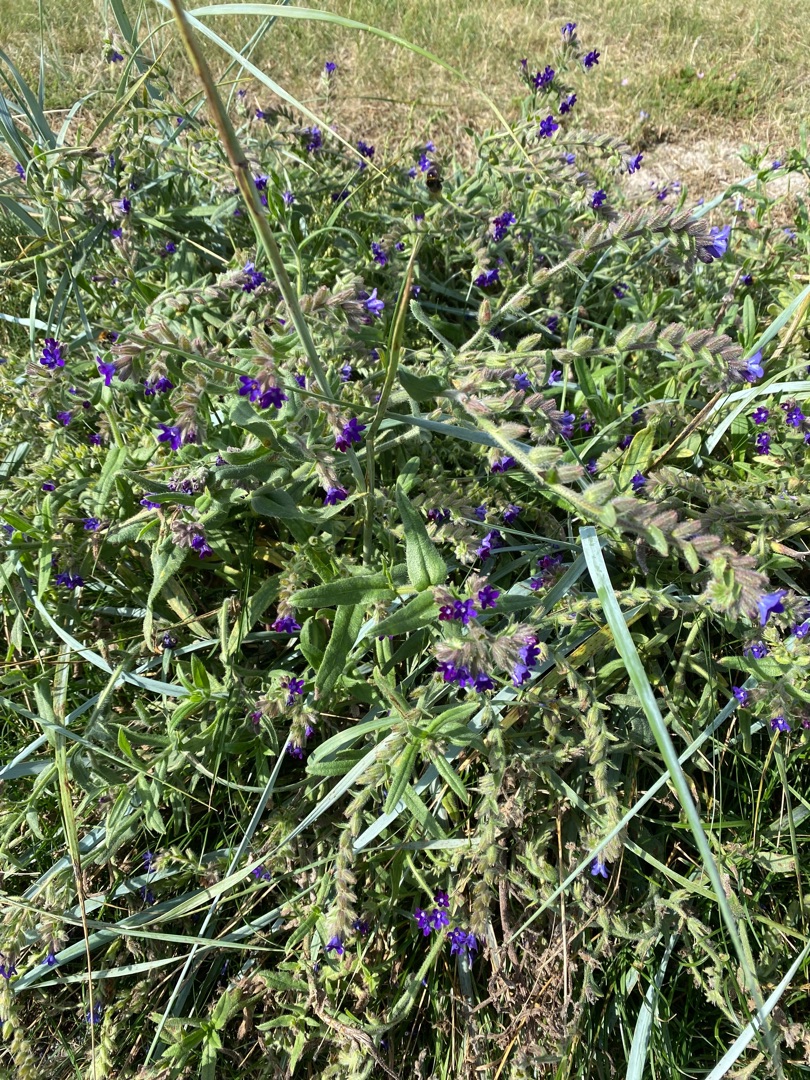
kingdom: Plantae
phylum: Tracheophyta
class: Magnoliopsida
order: Boraginales
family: Boraginaceae
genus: Anchusa
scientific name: Anchusa officinalis
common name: Læge-oksetunge
